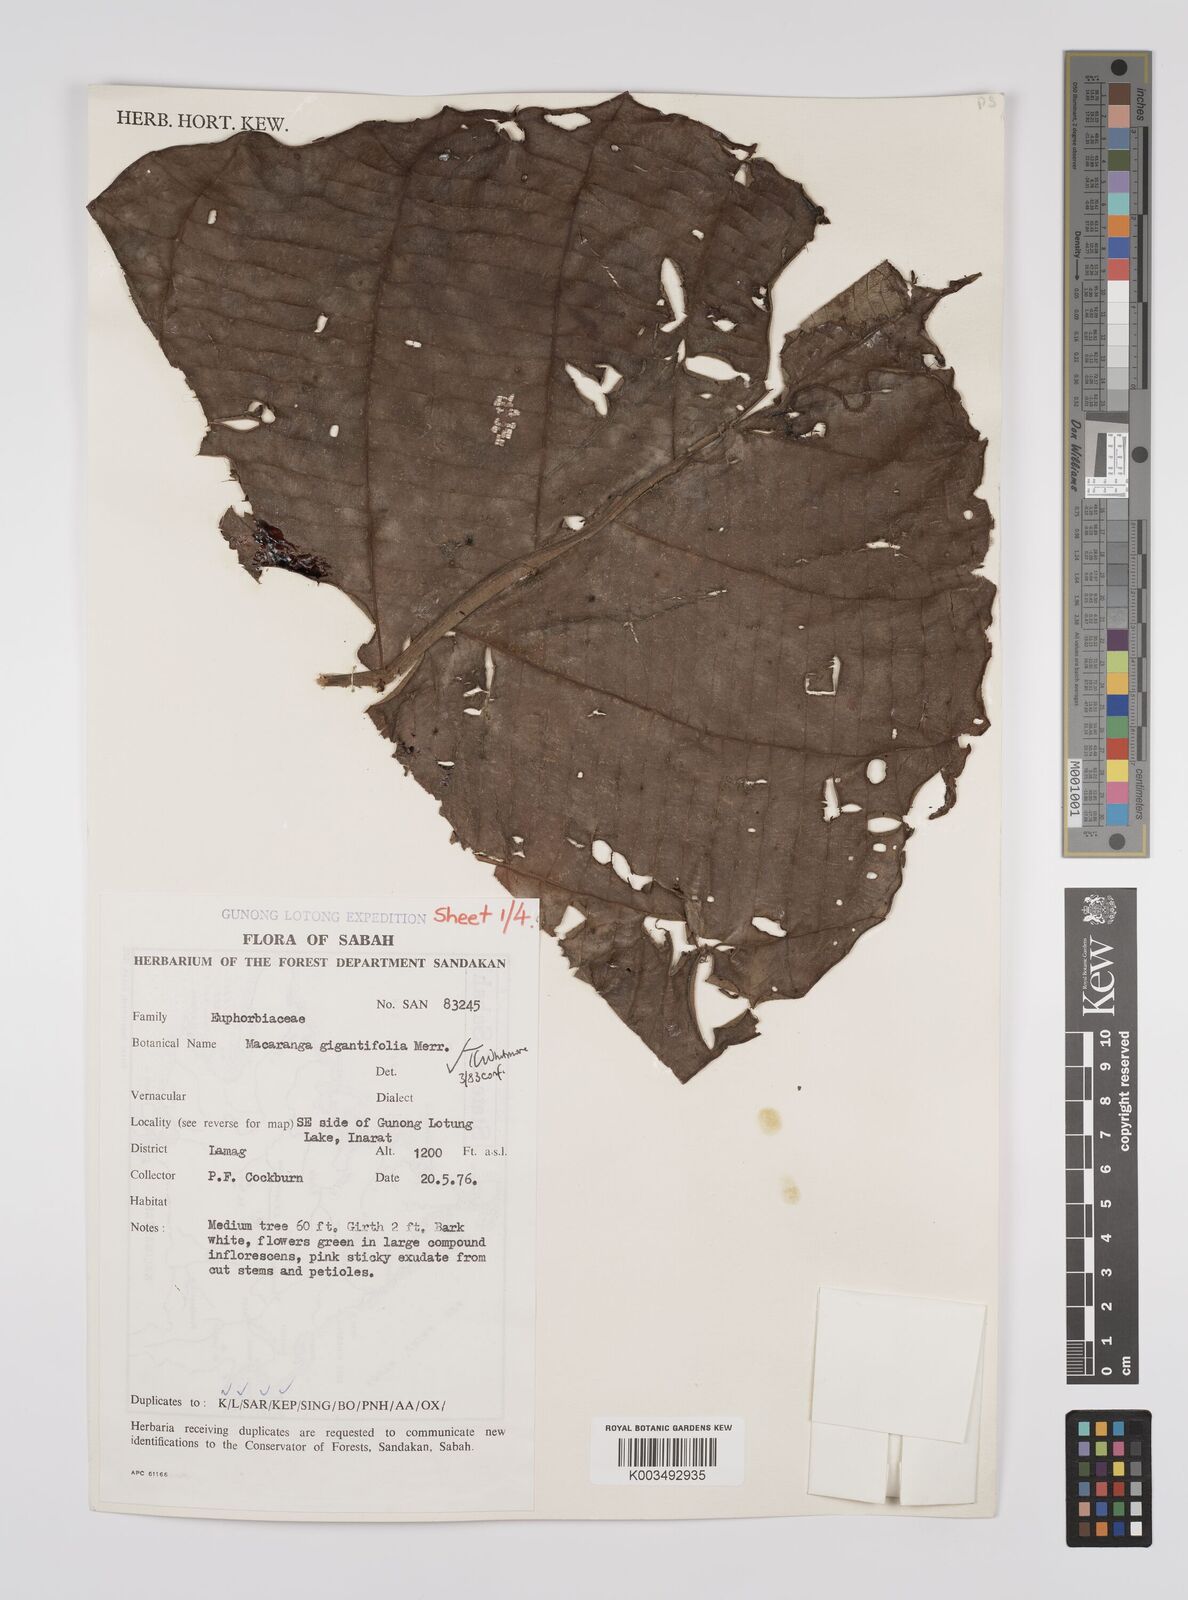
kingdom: Plantae
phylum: Tracheophyta
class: Magnoliopsida
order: Malpighiales
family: Euphorbiaceae
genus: Macaranga
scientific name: Macaranga gigantea
